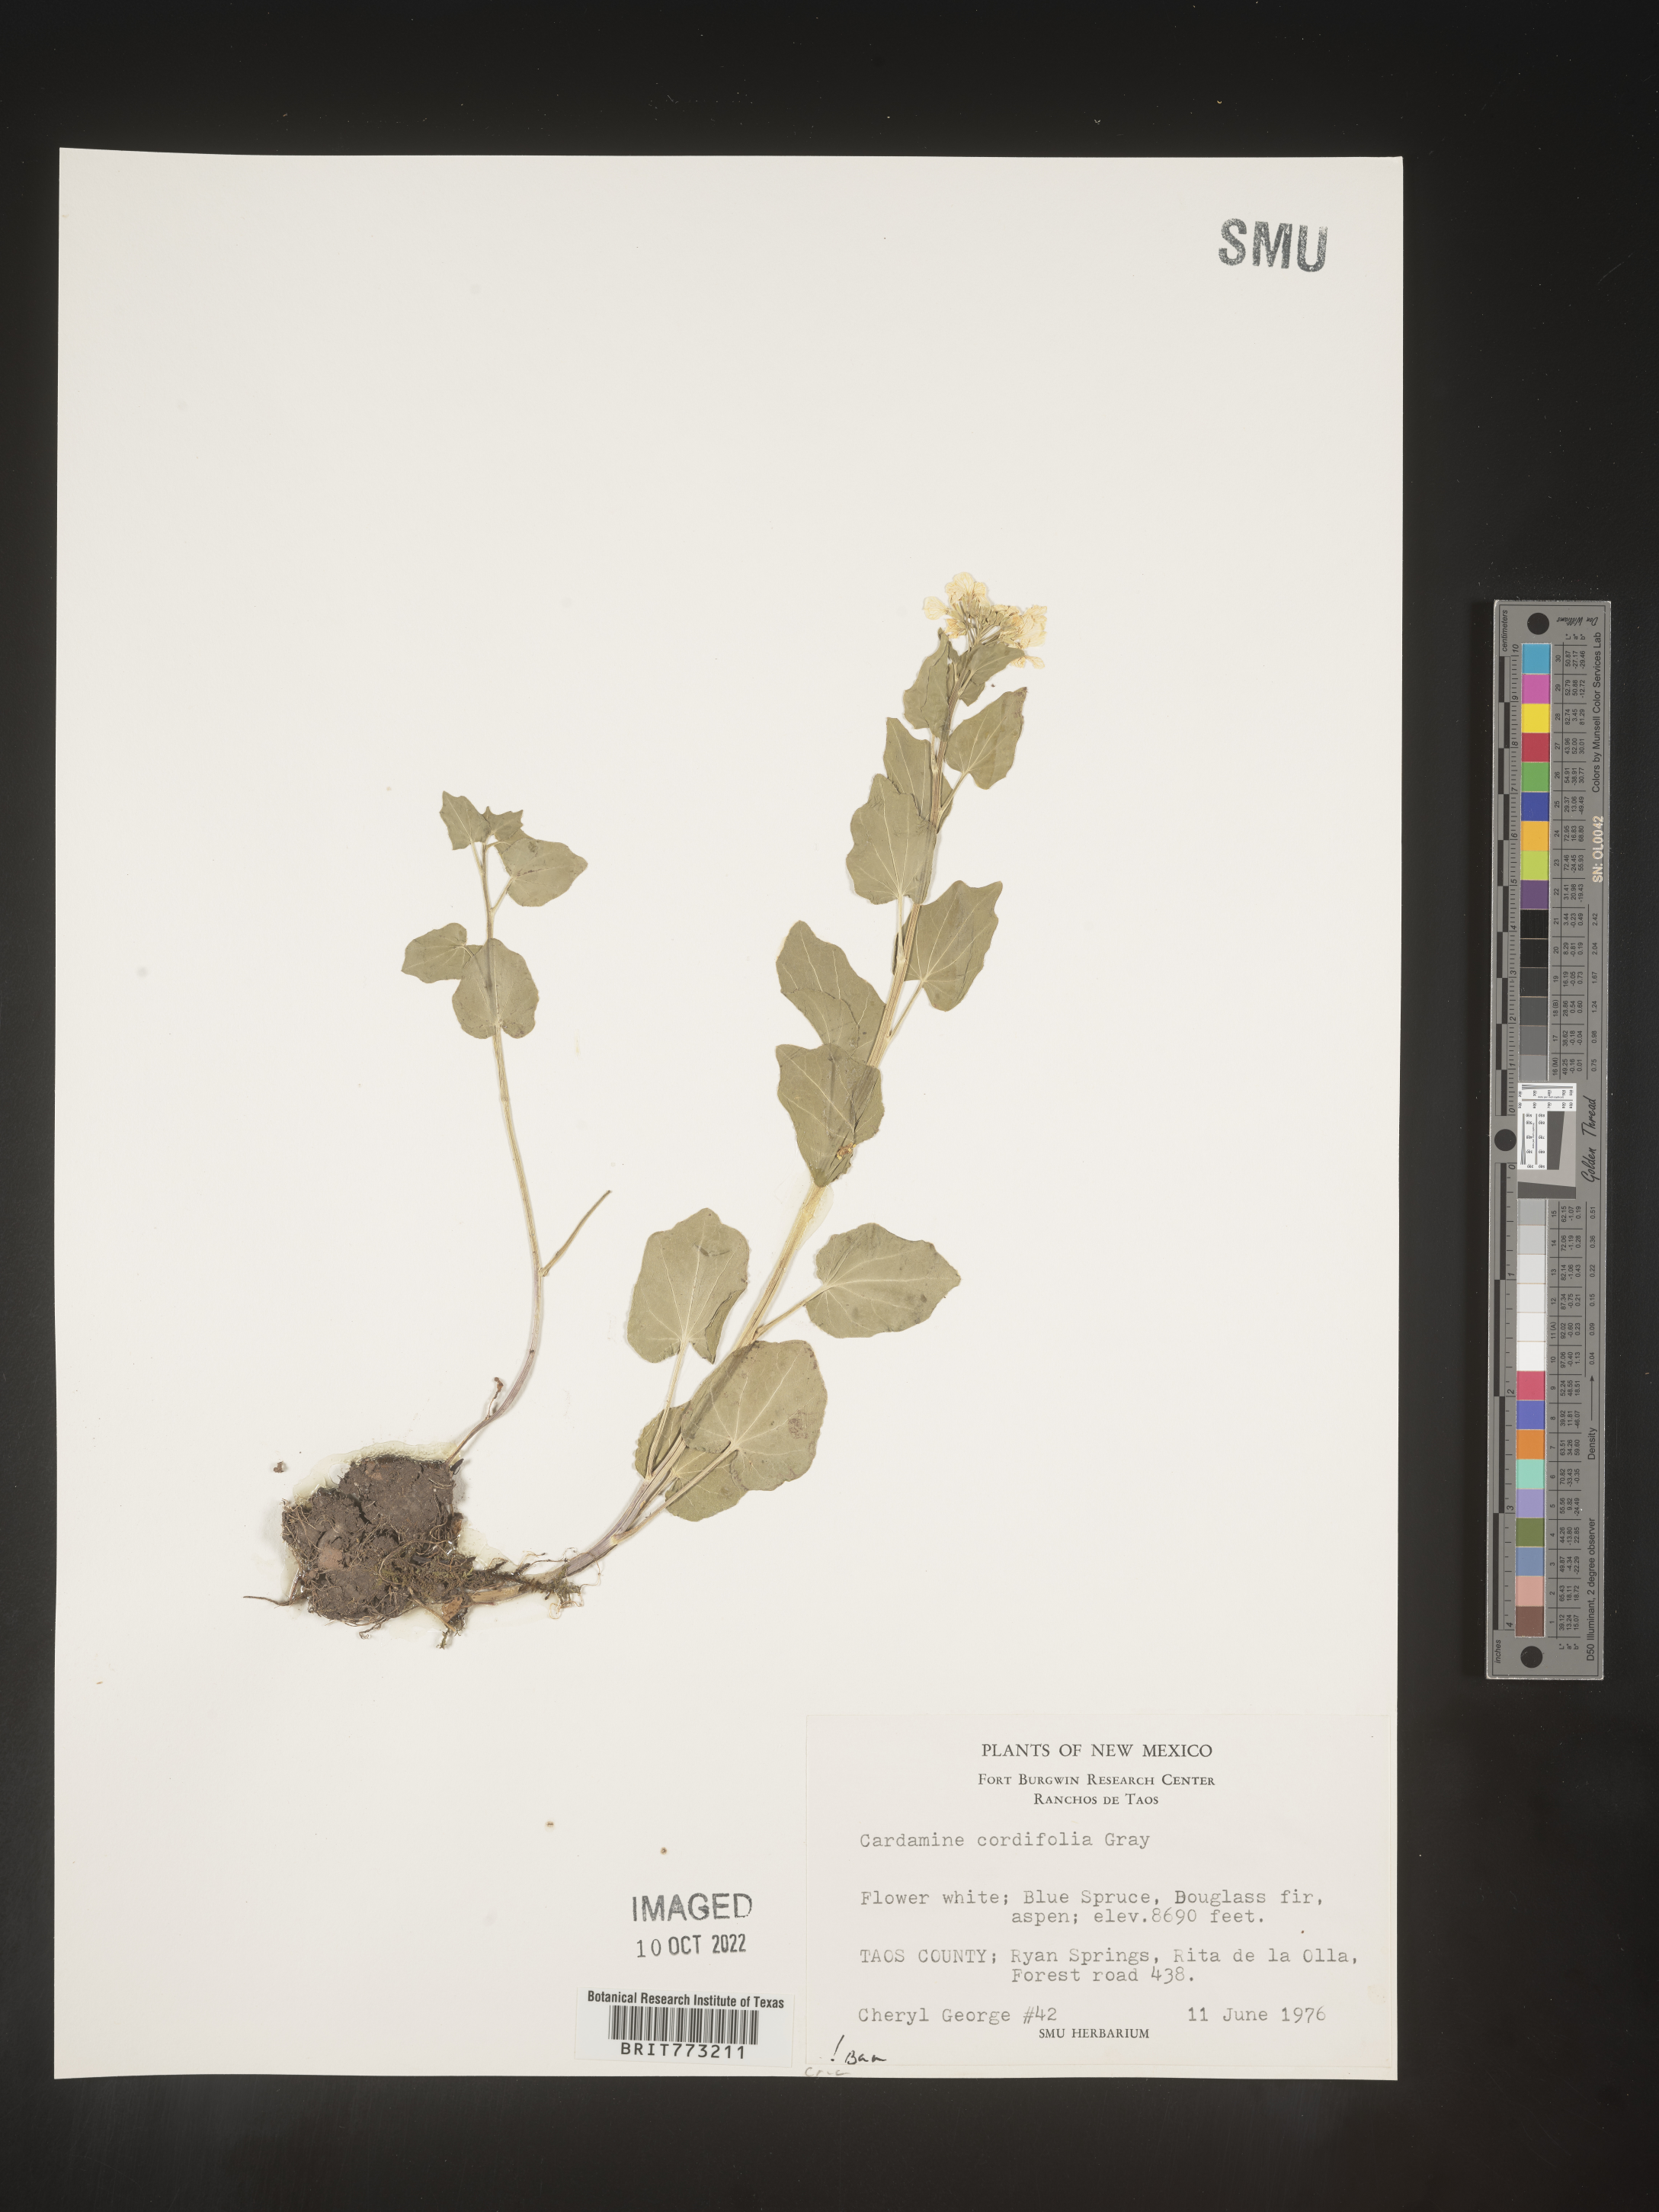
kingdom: Plantae
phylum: Tracheophyta
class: Magnoliopsida
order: Brassicales
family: Brassicaceae
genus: Cardamine
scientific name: Cardamine
